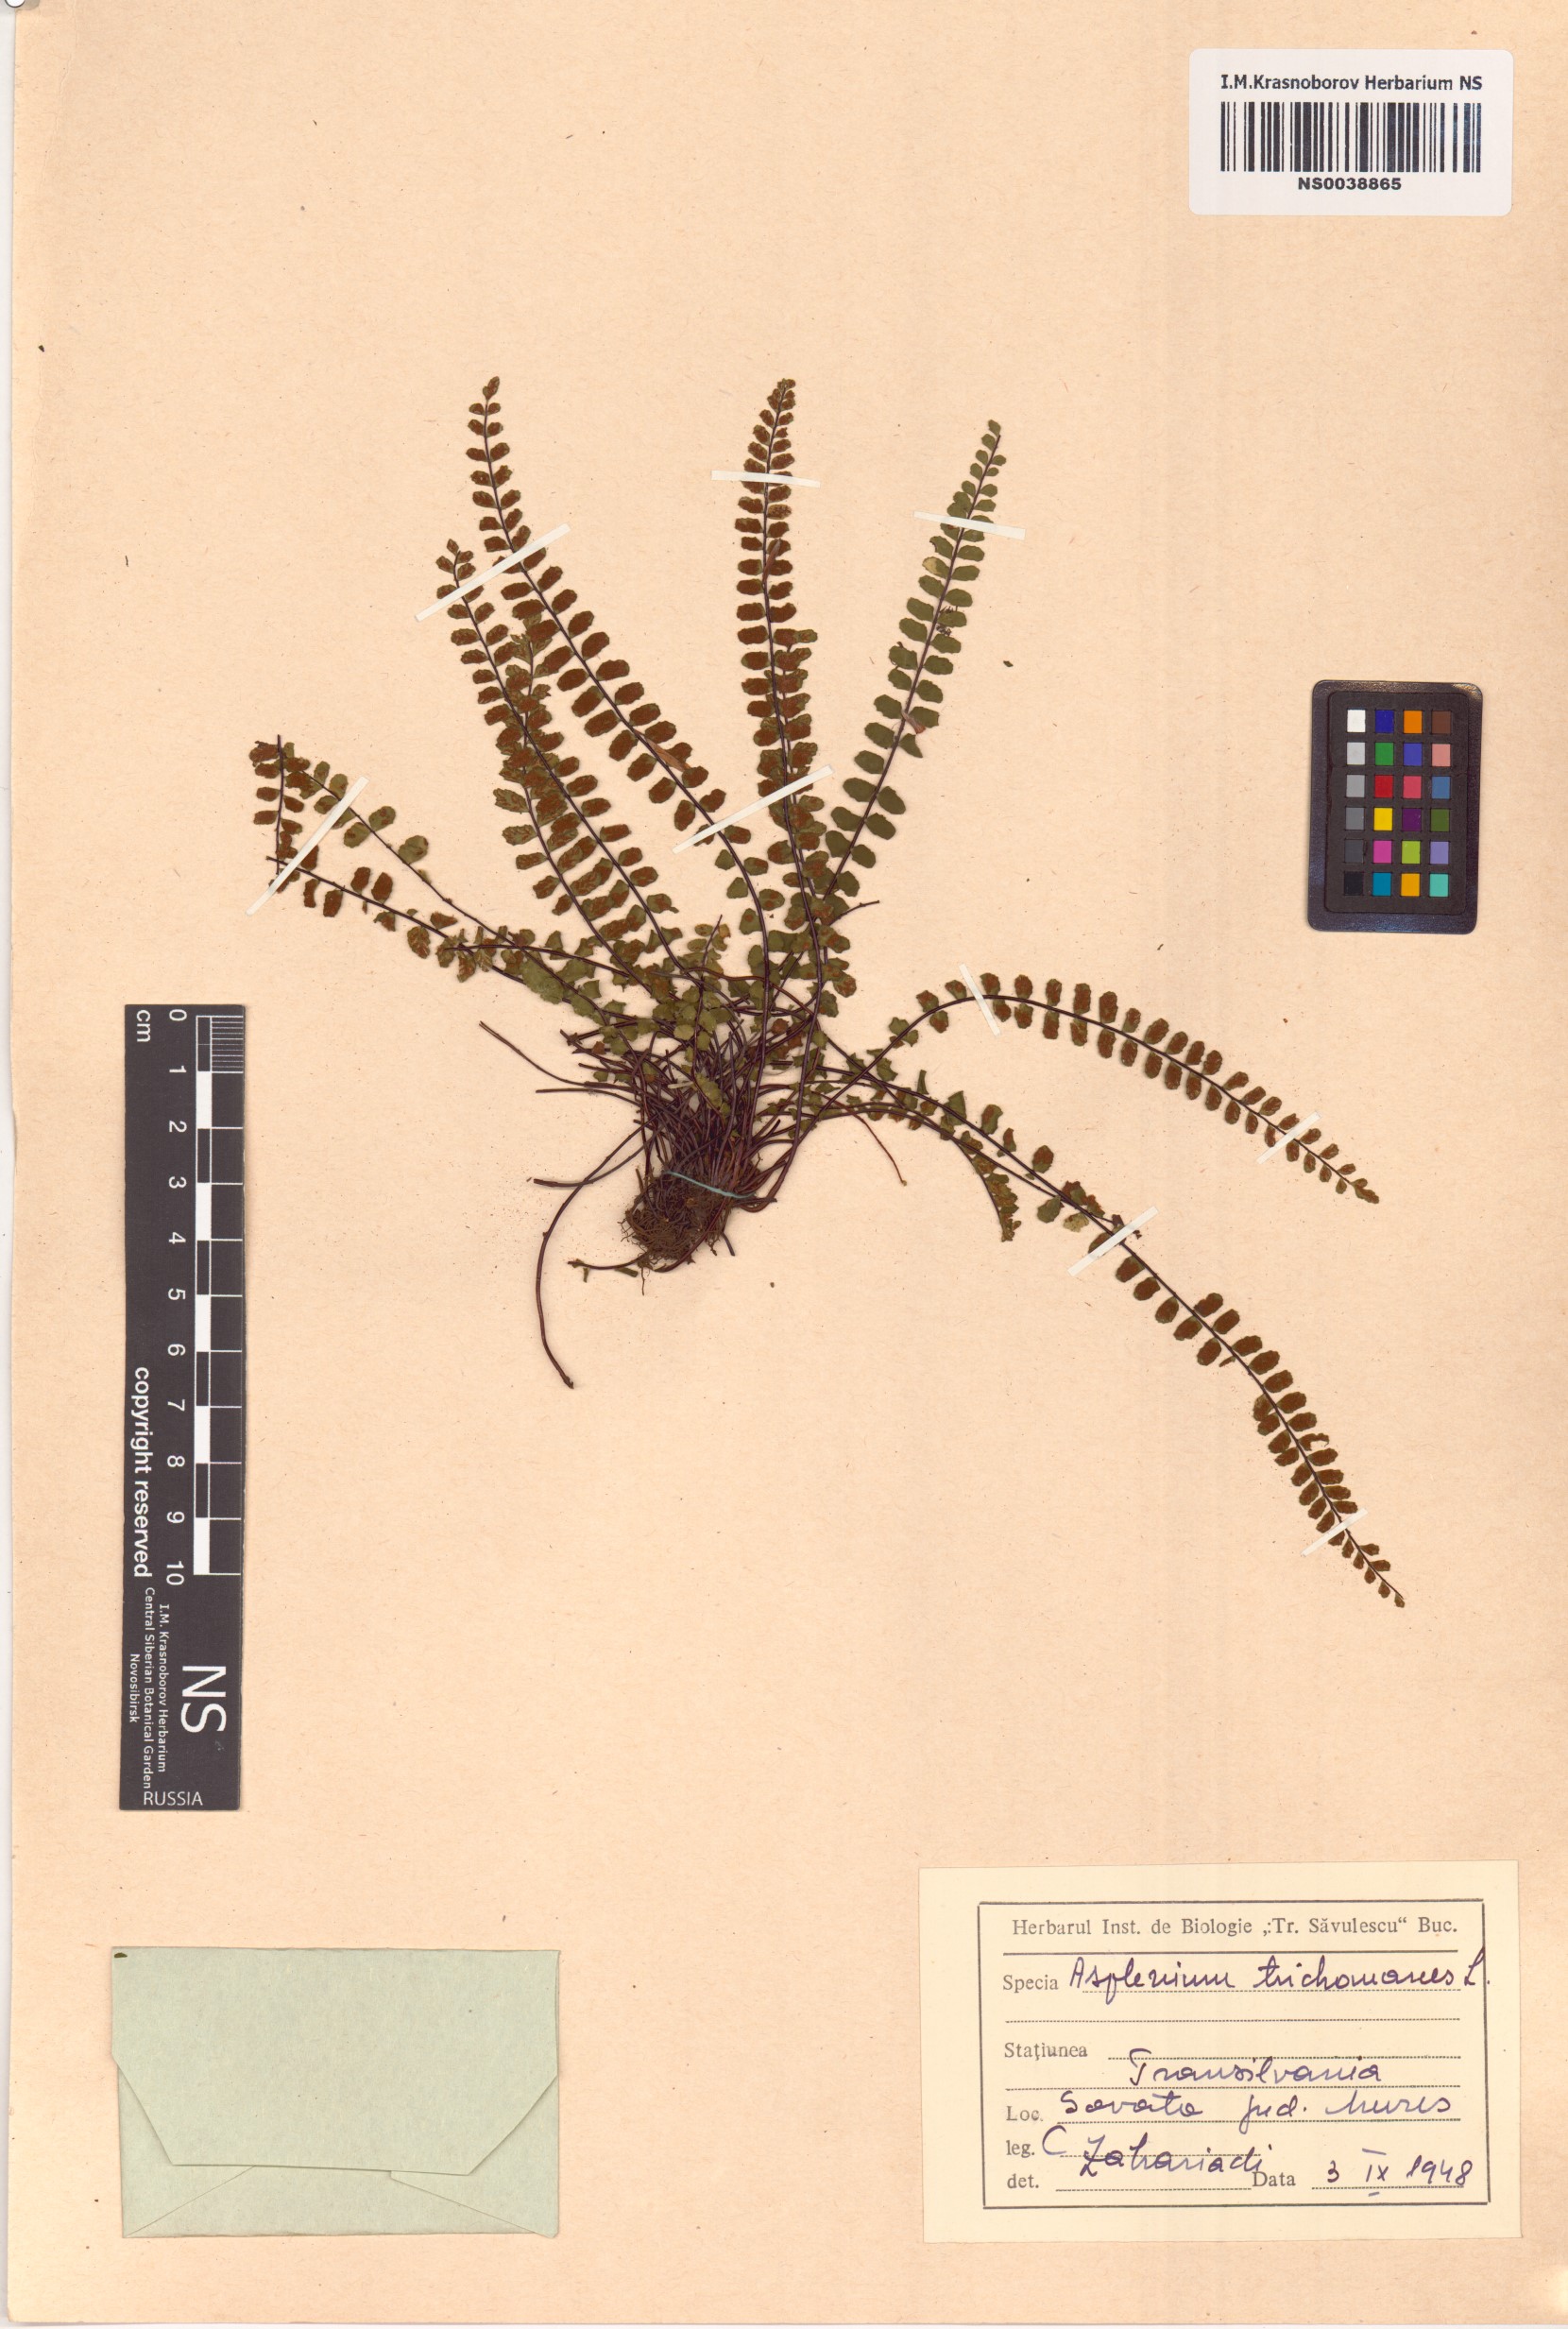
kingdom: Plantae
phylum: Tracheophyta
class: Polypodiopsida
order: Polypodiales
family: Aspleniaceae
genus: Asplenium
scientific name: Asplenium trichomanes
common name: Maidenhair spleenwort
